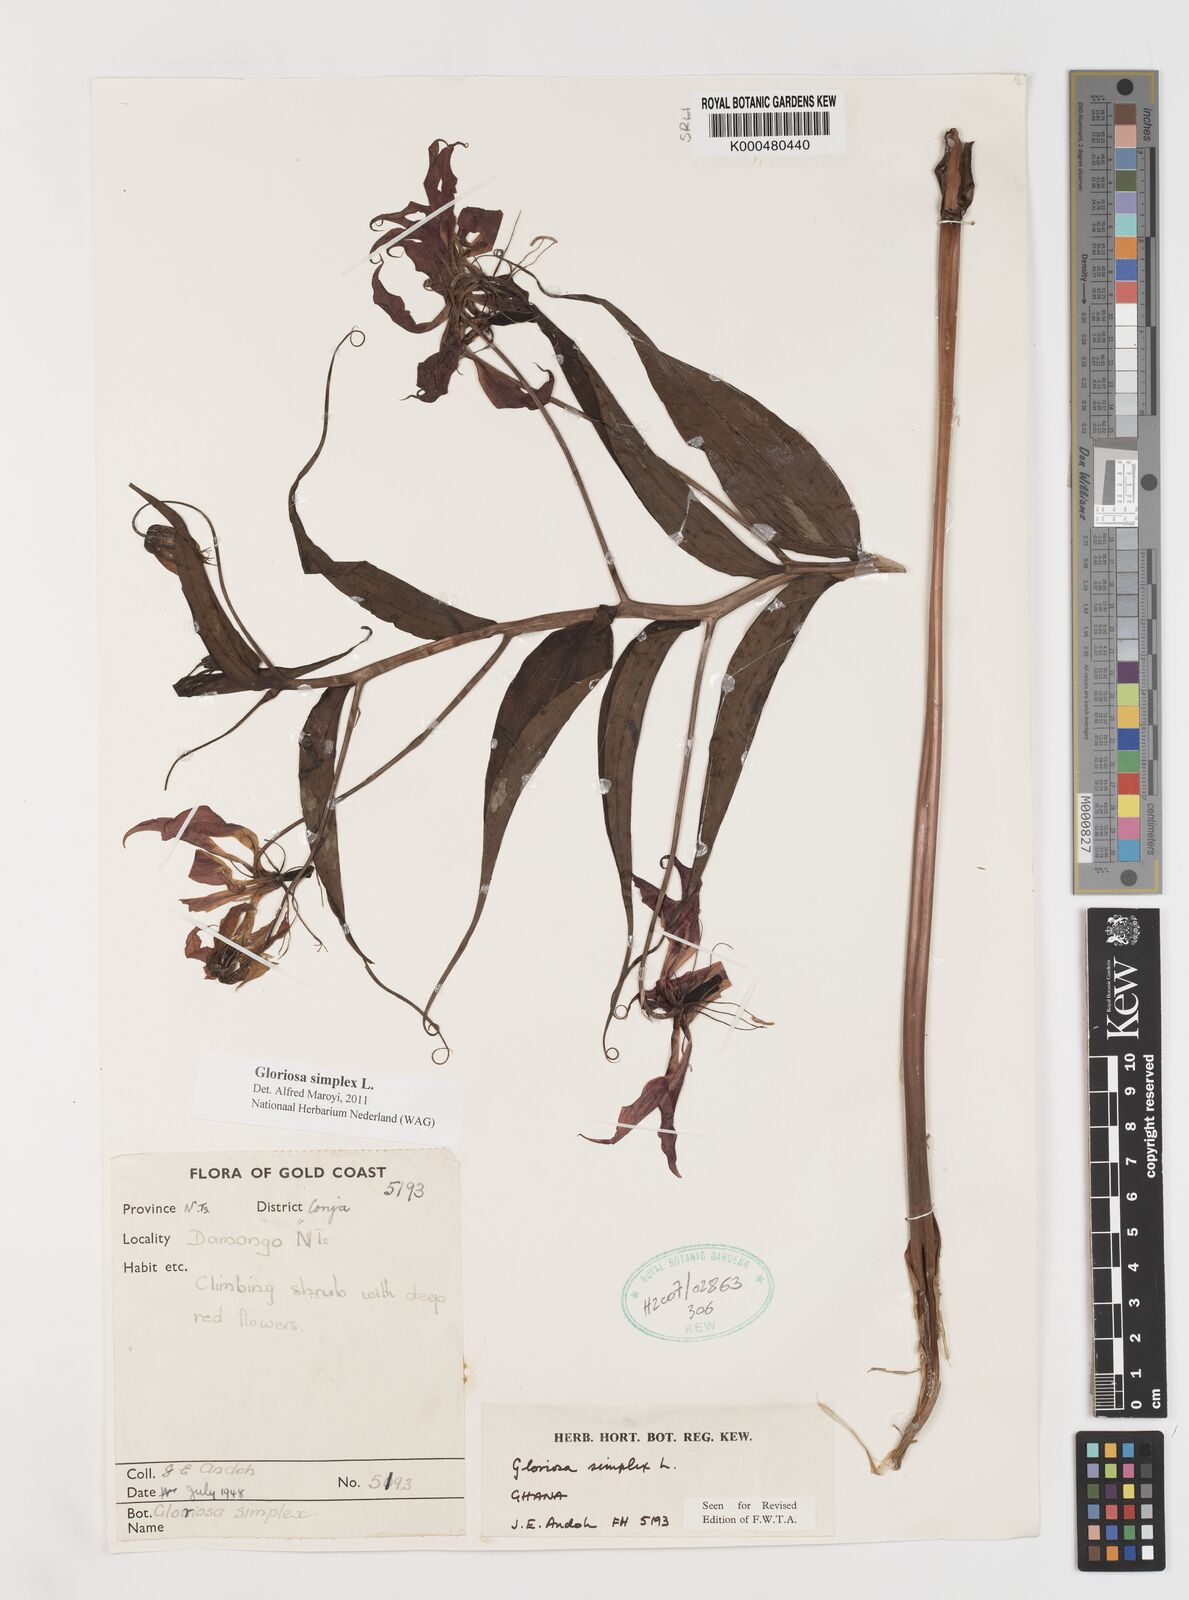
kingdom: Plantae
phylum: Tracheophyta
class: Liliopsida
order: Liliales
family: Colchicaceae
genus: Gloriosa
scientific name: Gloriosa simplex
